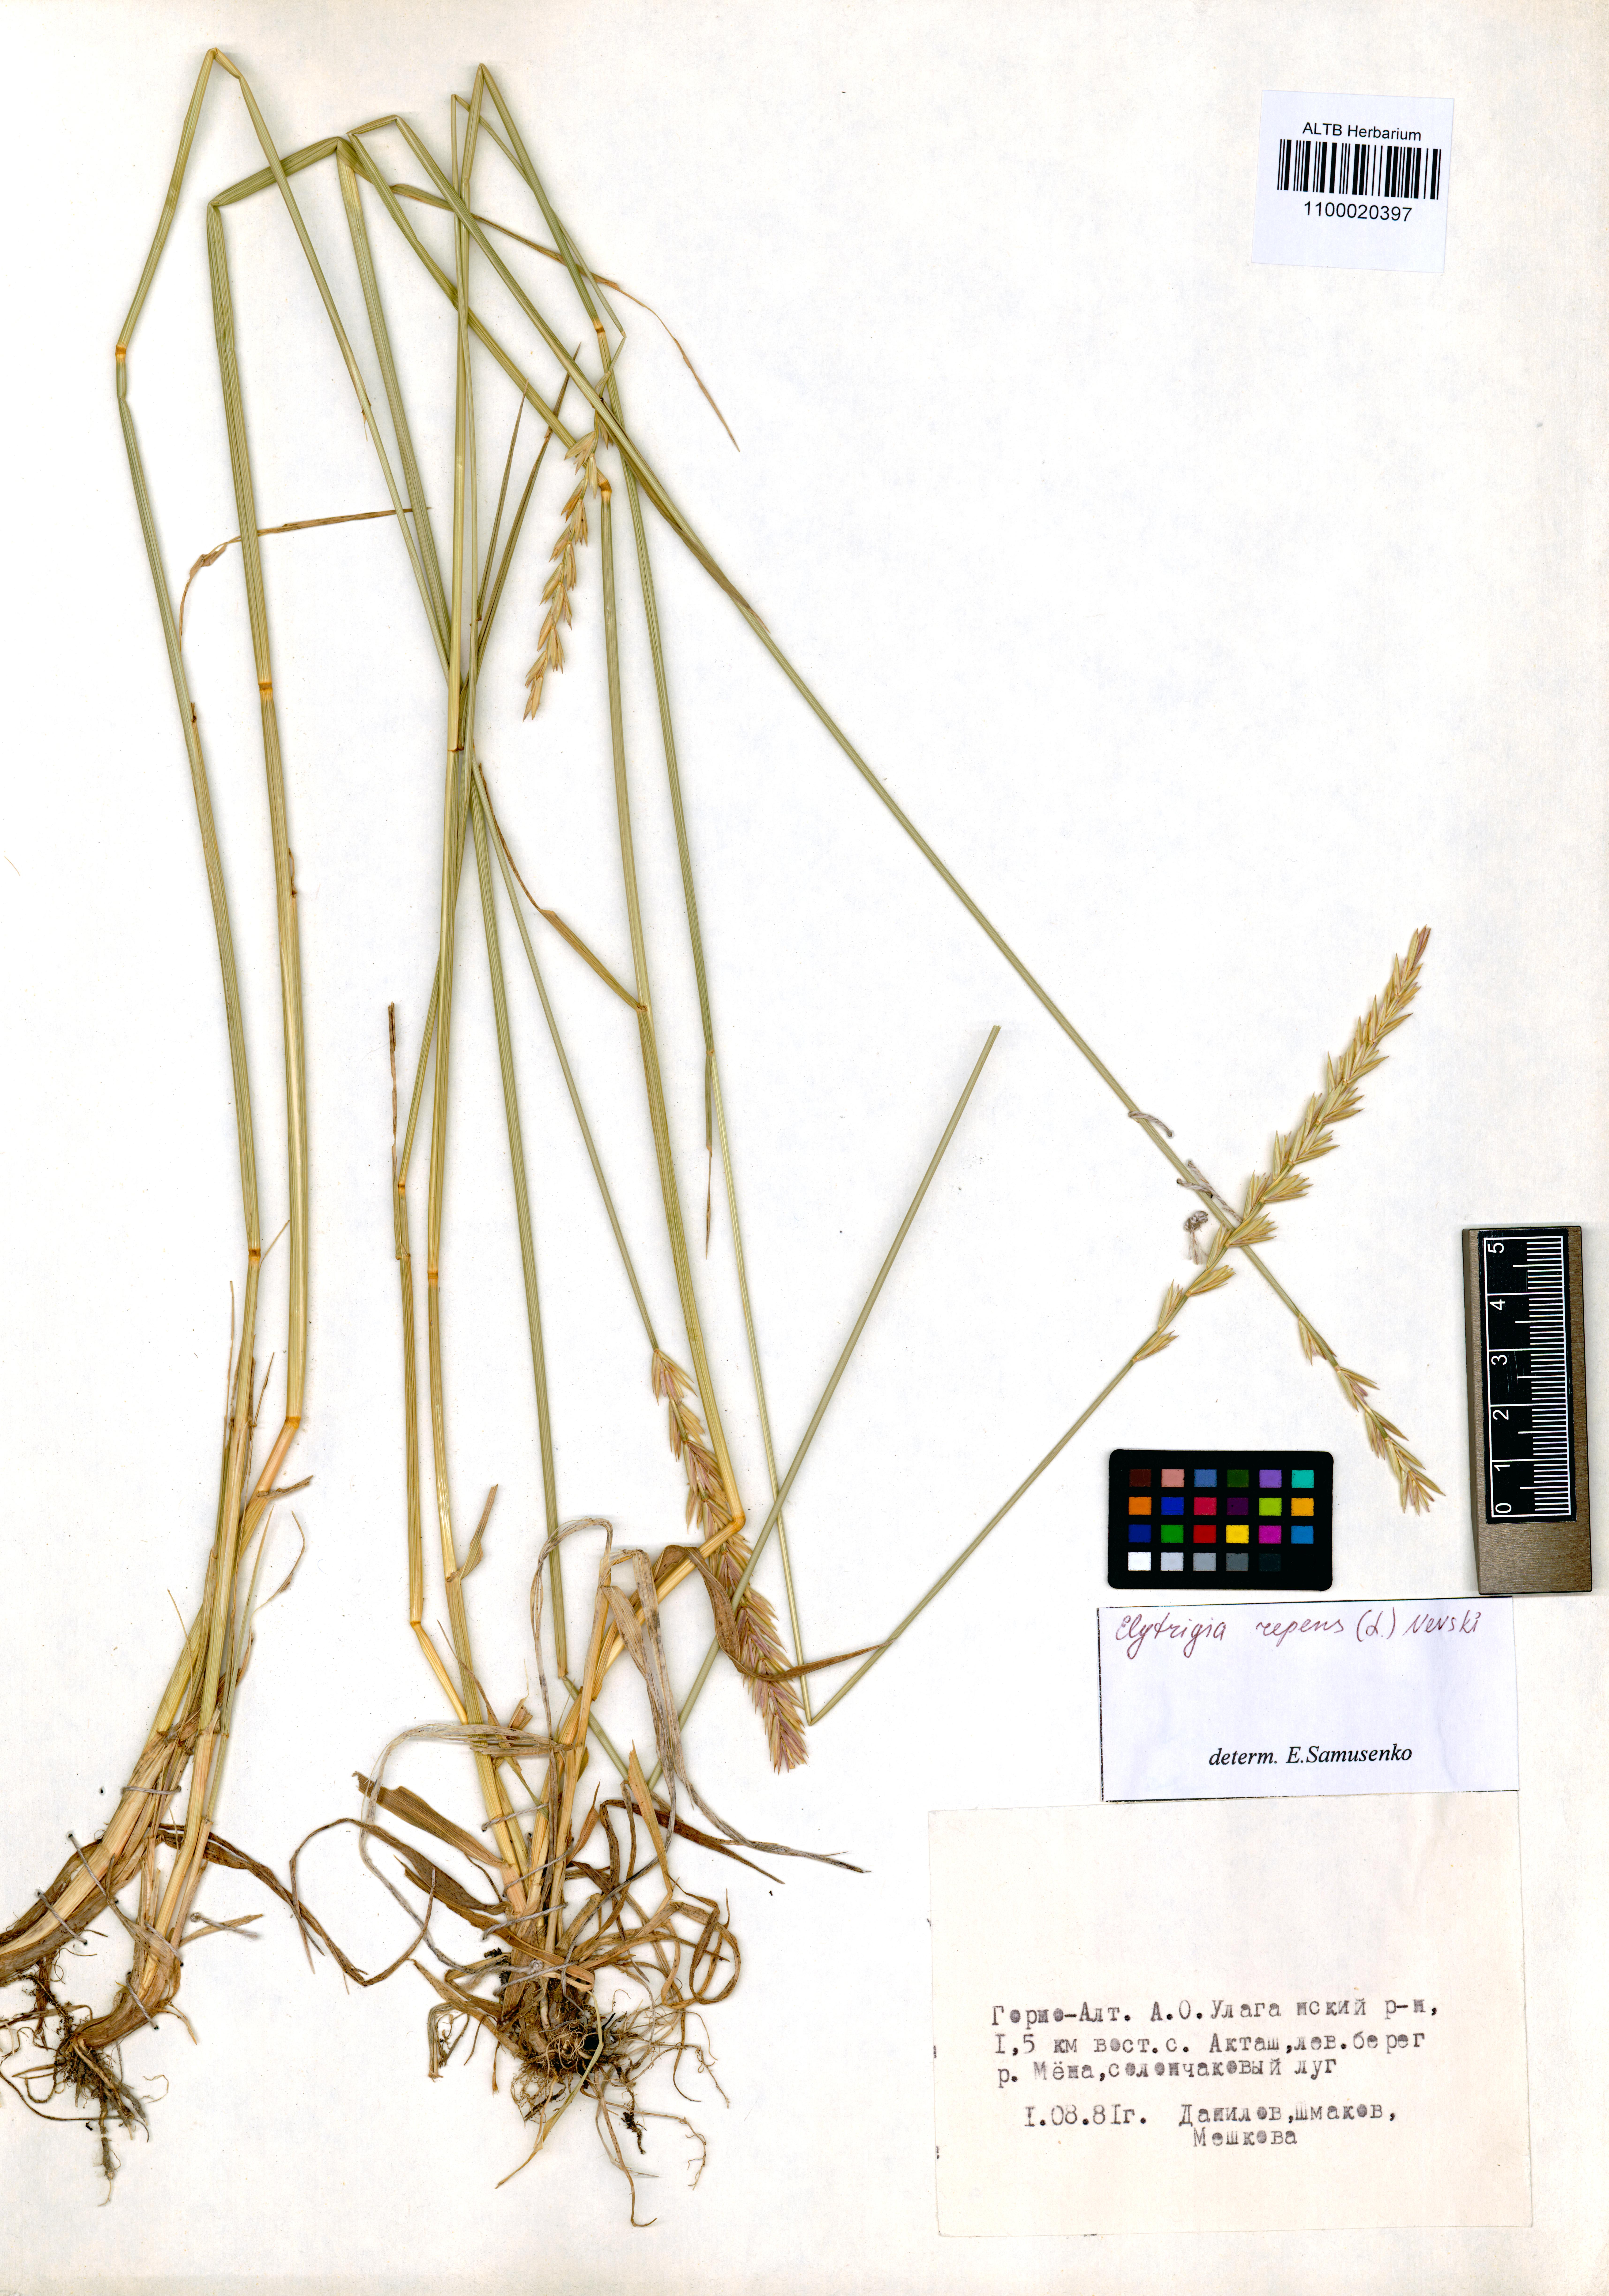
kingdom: Plantae
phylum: Tracheophyta
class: Liliopsida
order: Poales
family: Poaceae
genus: Elymus
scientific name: Elymus repens
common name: Quackgrass
